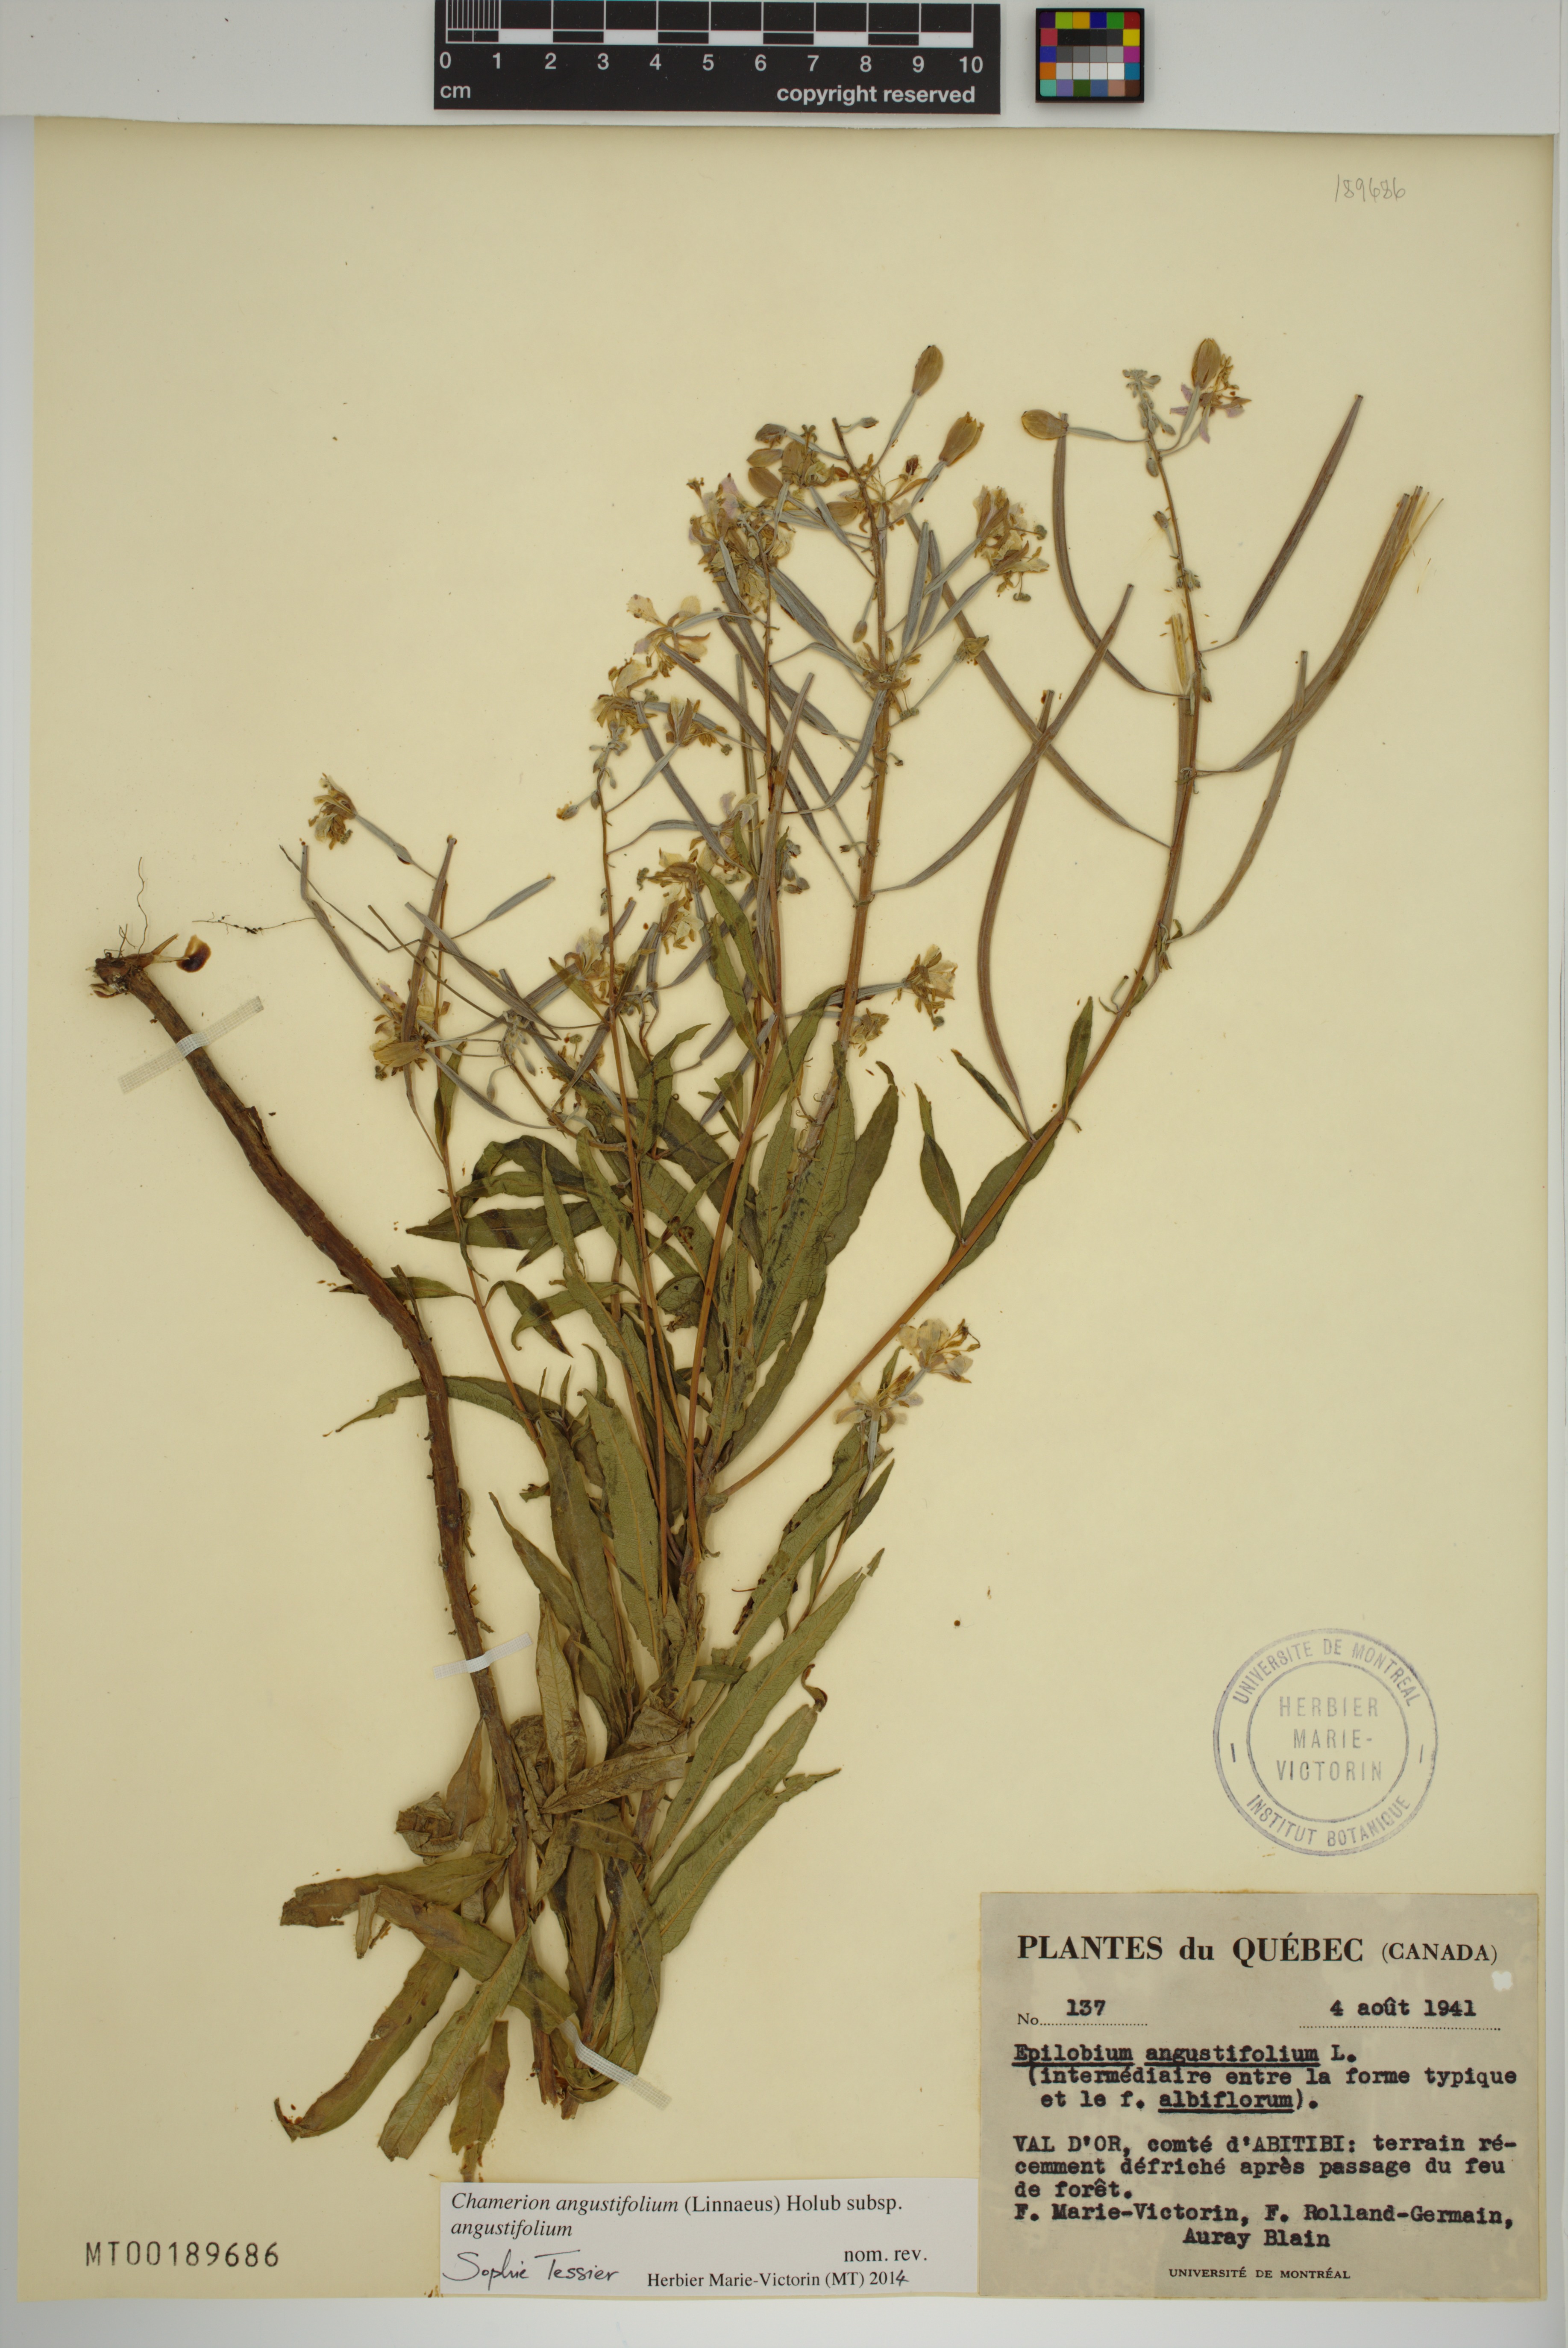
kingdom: Plantae
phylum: Tracheophyta
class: Magnoliopsida
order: Myrtales
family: Onagraceae
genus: Chamaenerion
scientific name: Chamaenerion angustifolium
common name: Fireweed
